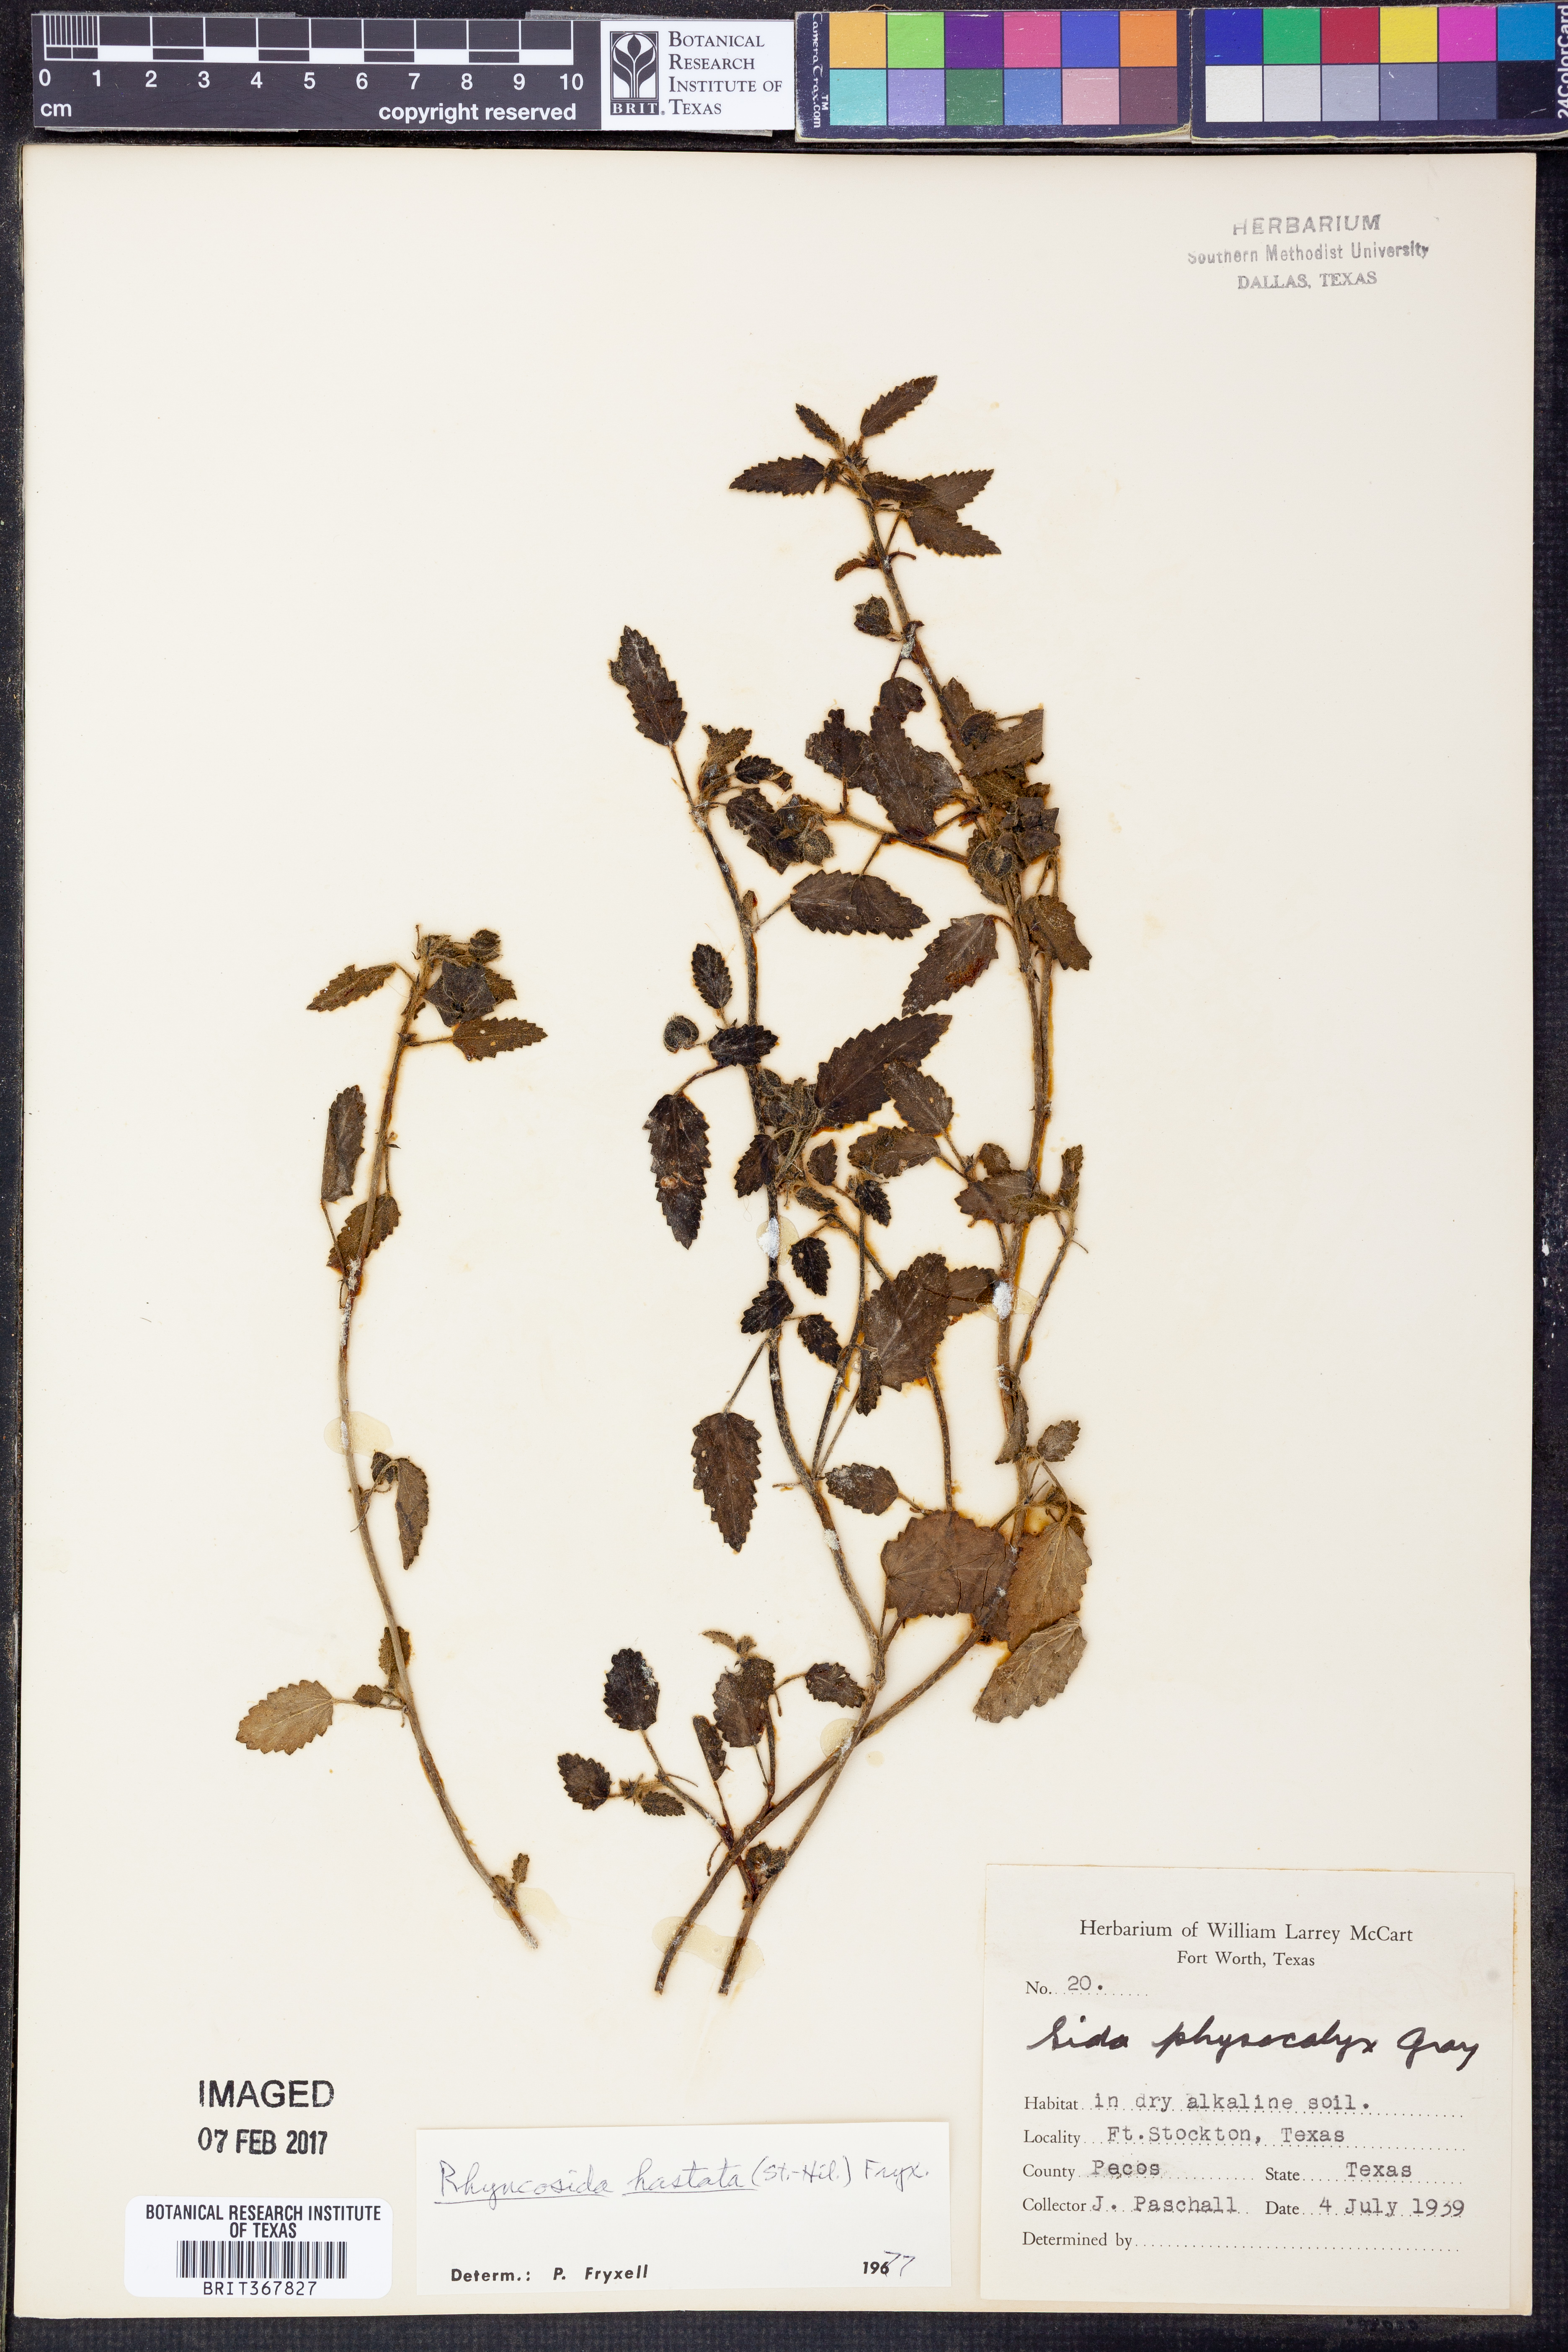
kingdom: Plantae
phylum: Tracheophyta
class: Magnoliopsida
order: Malvales
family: Malvaceae
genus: Rhynchosida
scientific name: Rhynchosida
